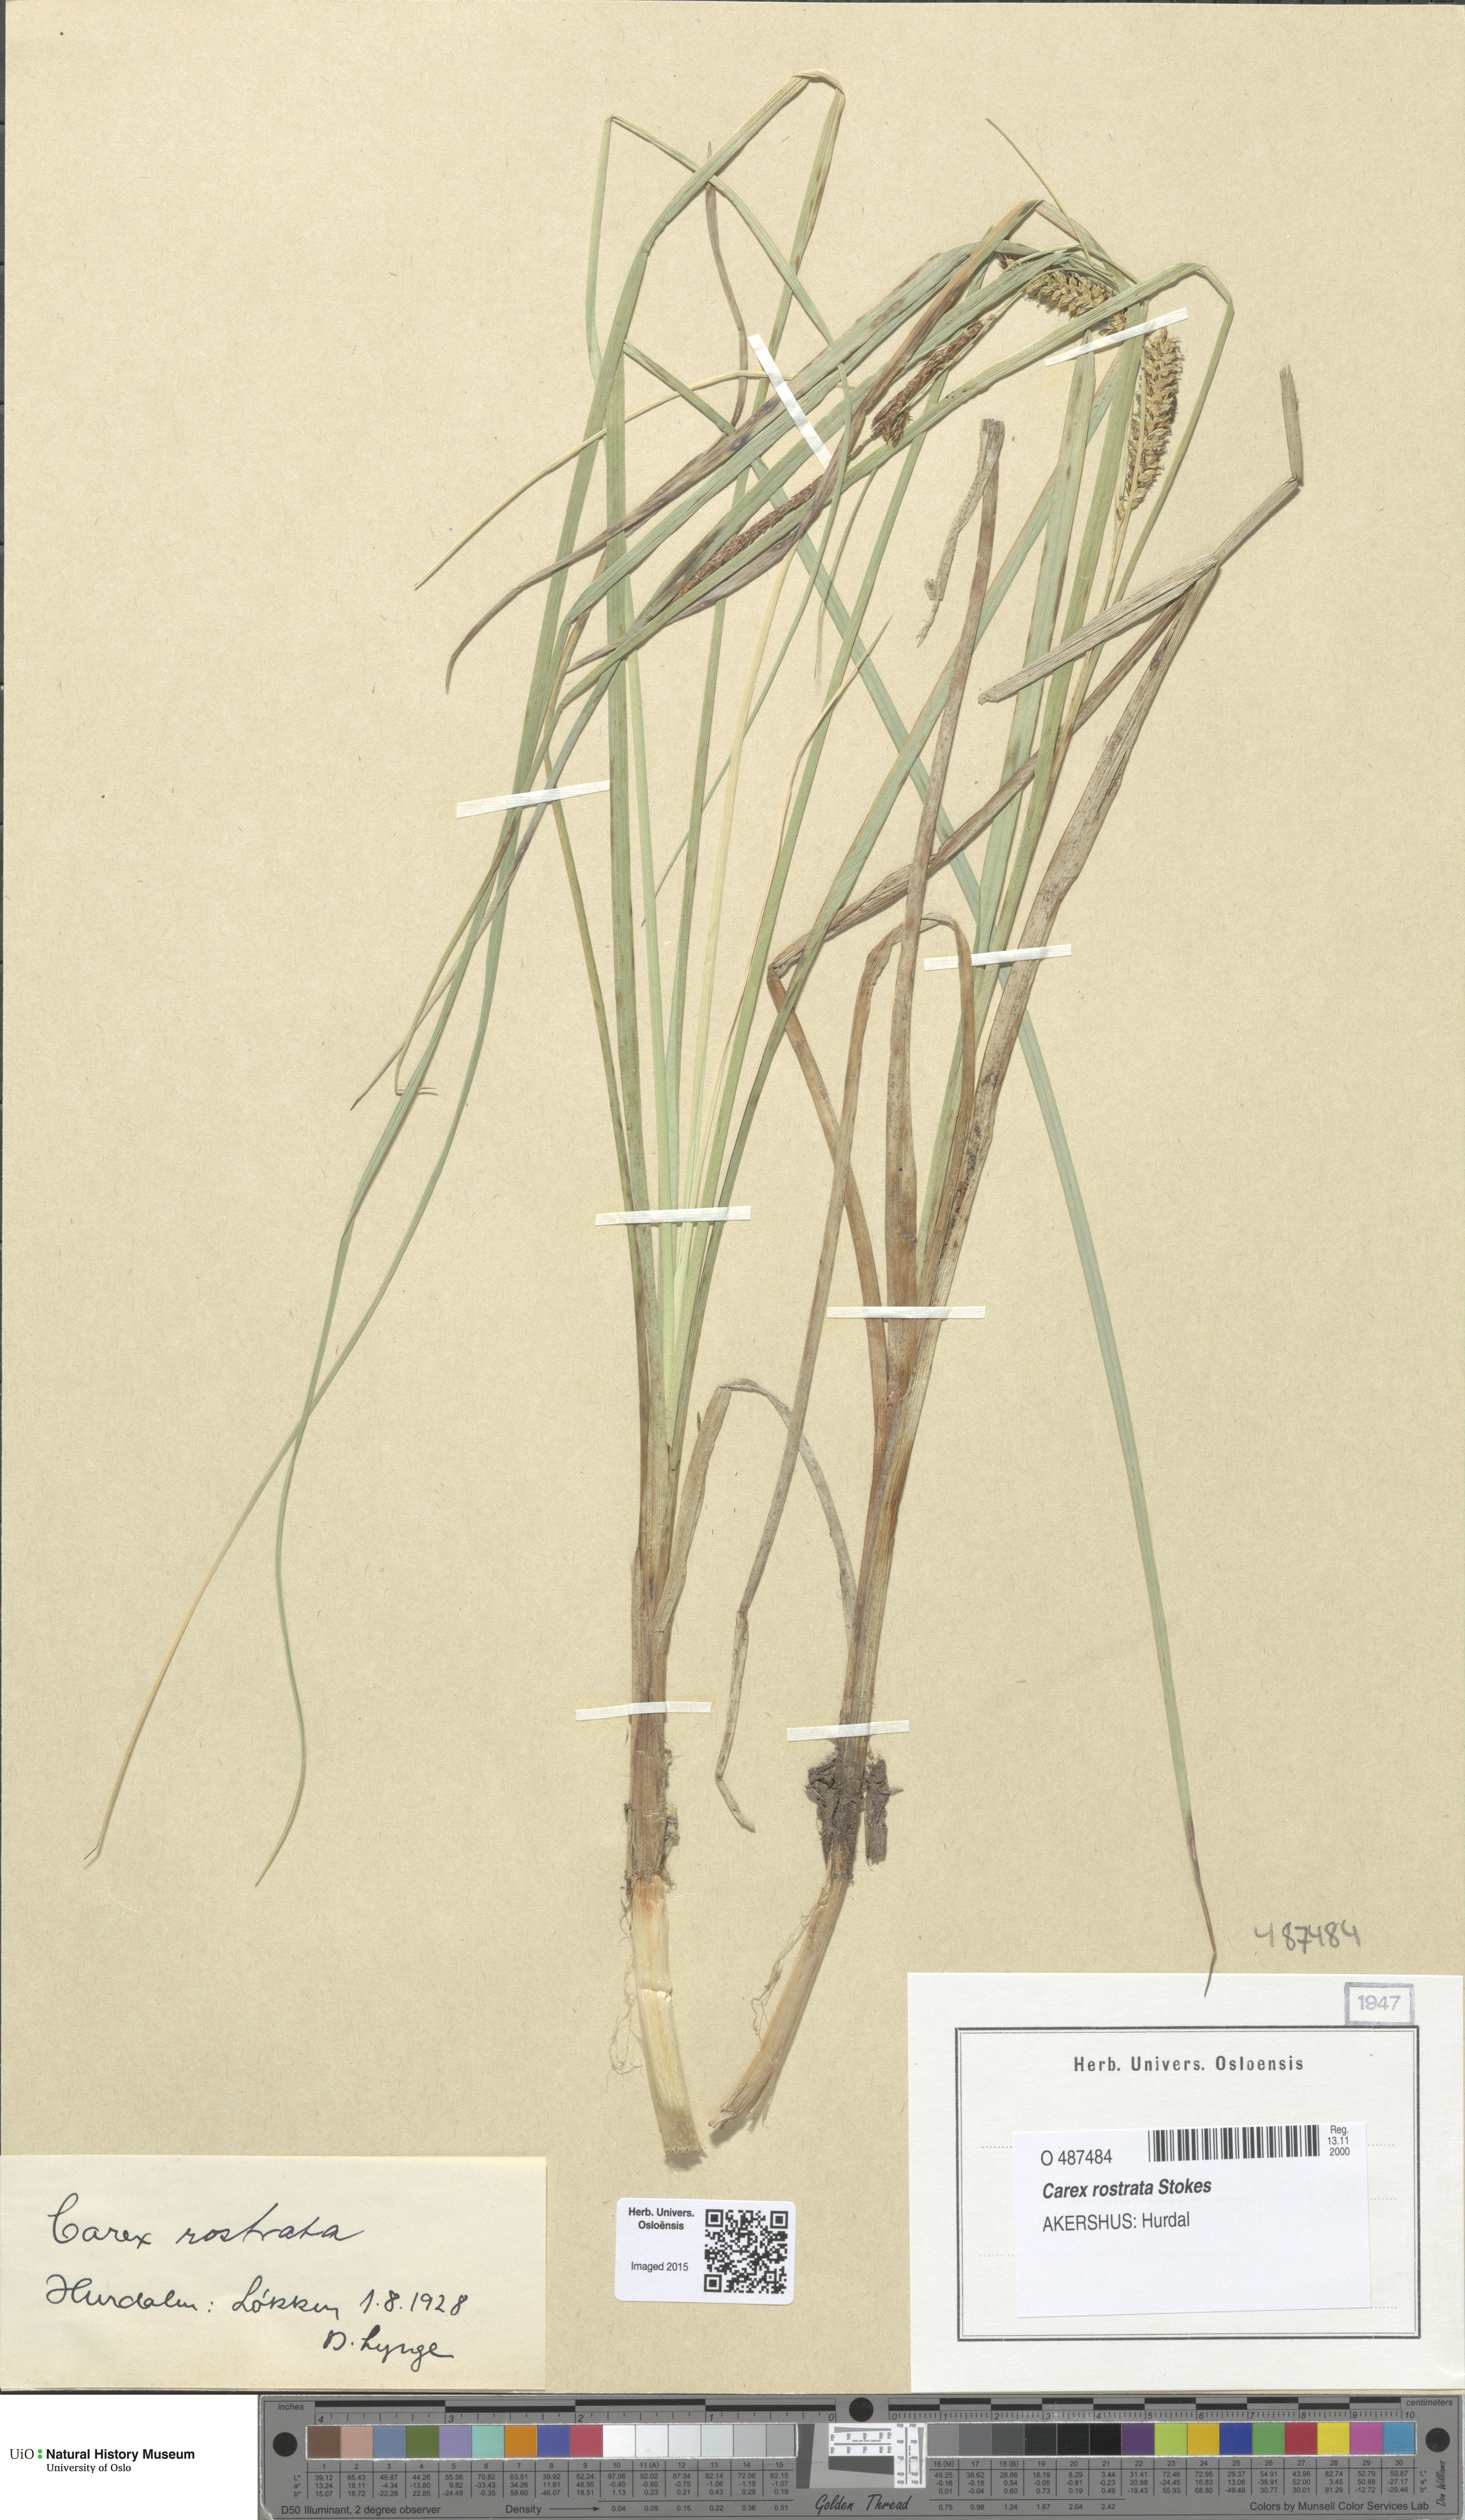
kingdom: Plantae
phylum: Tracheophyta
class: Liliopsida
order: Poales
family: Cyperaceae
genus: Carex
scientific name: Carex rostrata
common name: Bottle sedge
